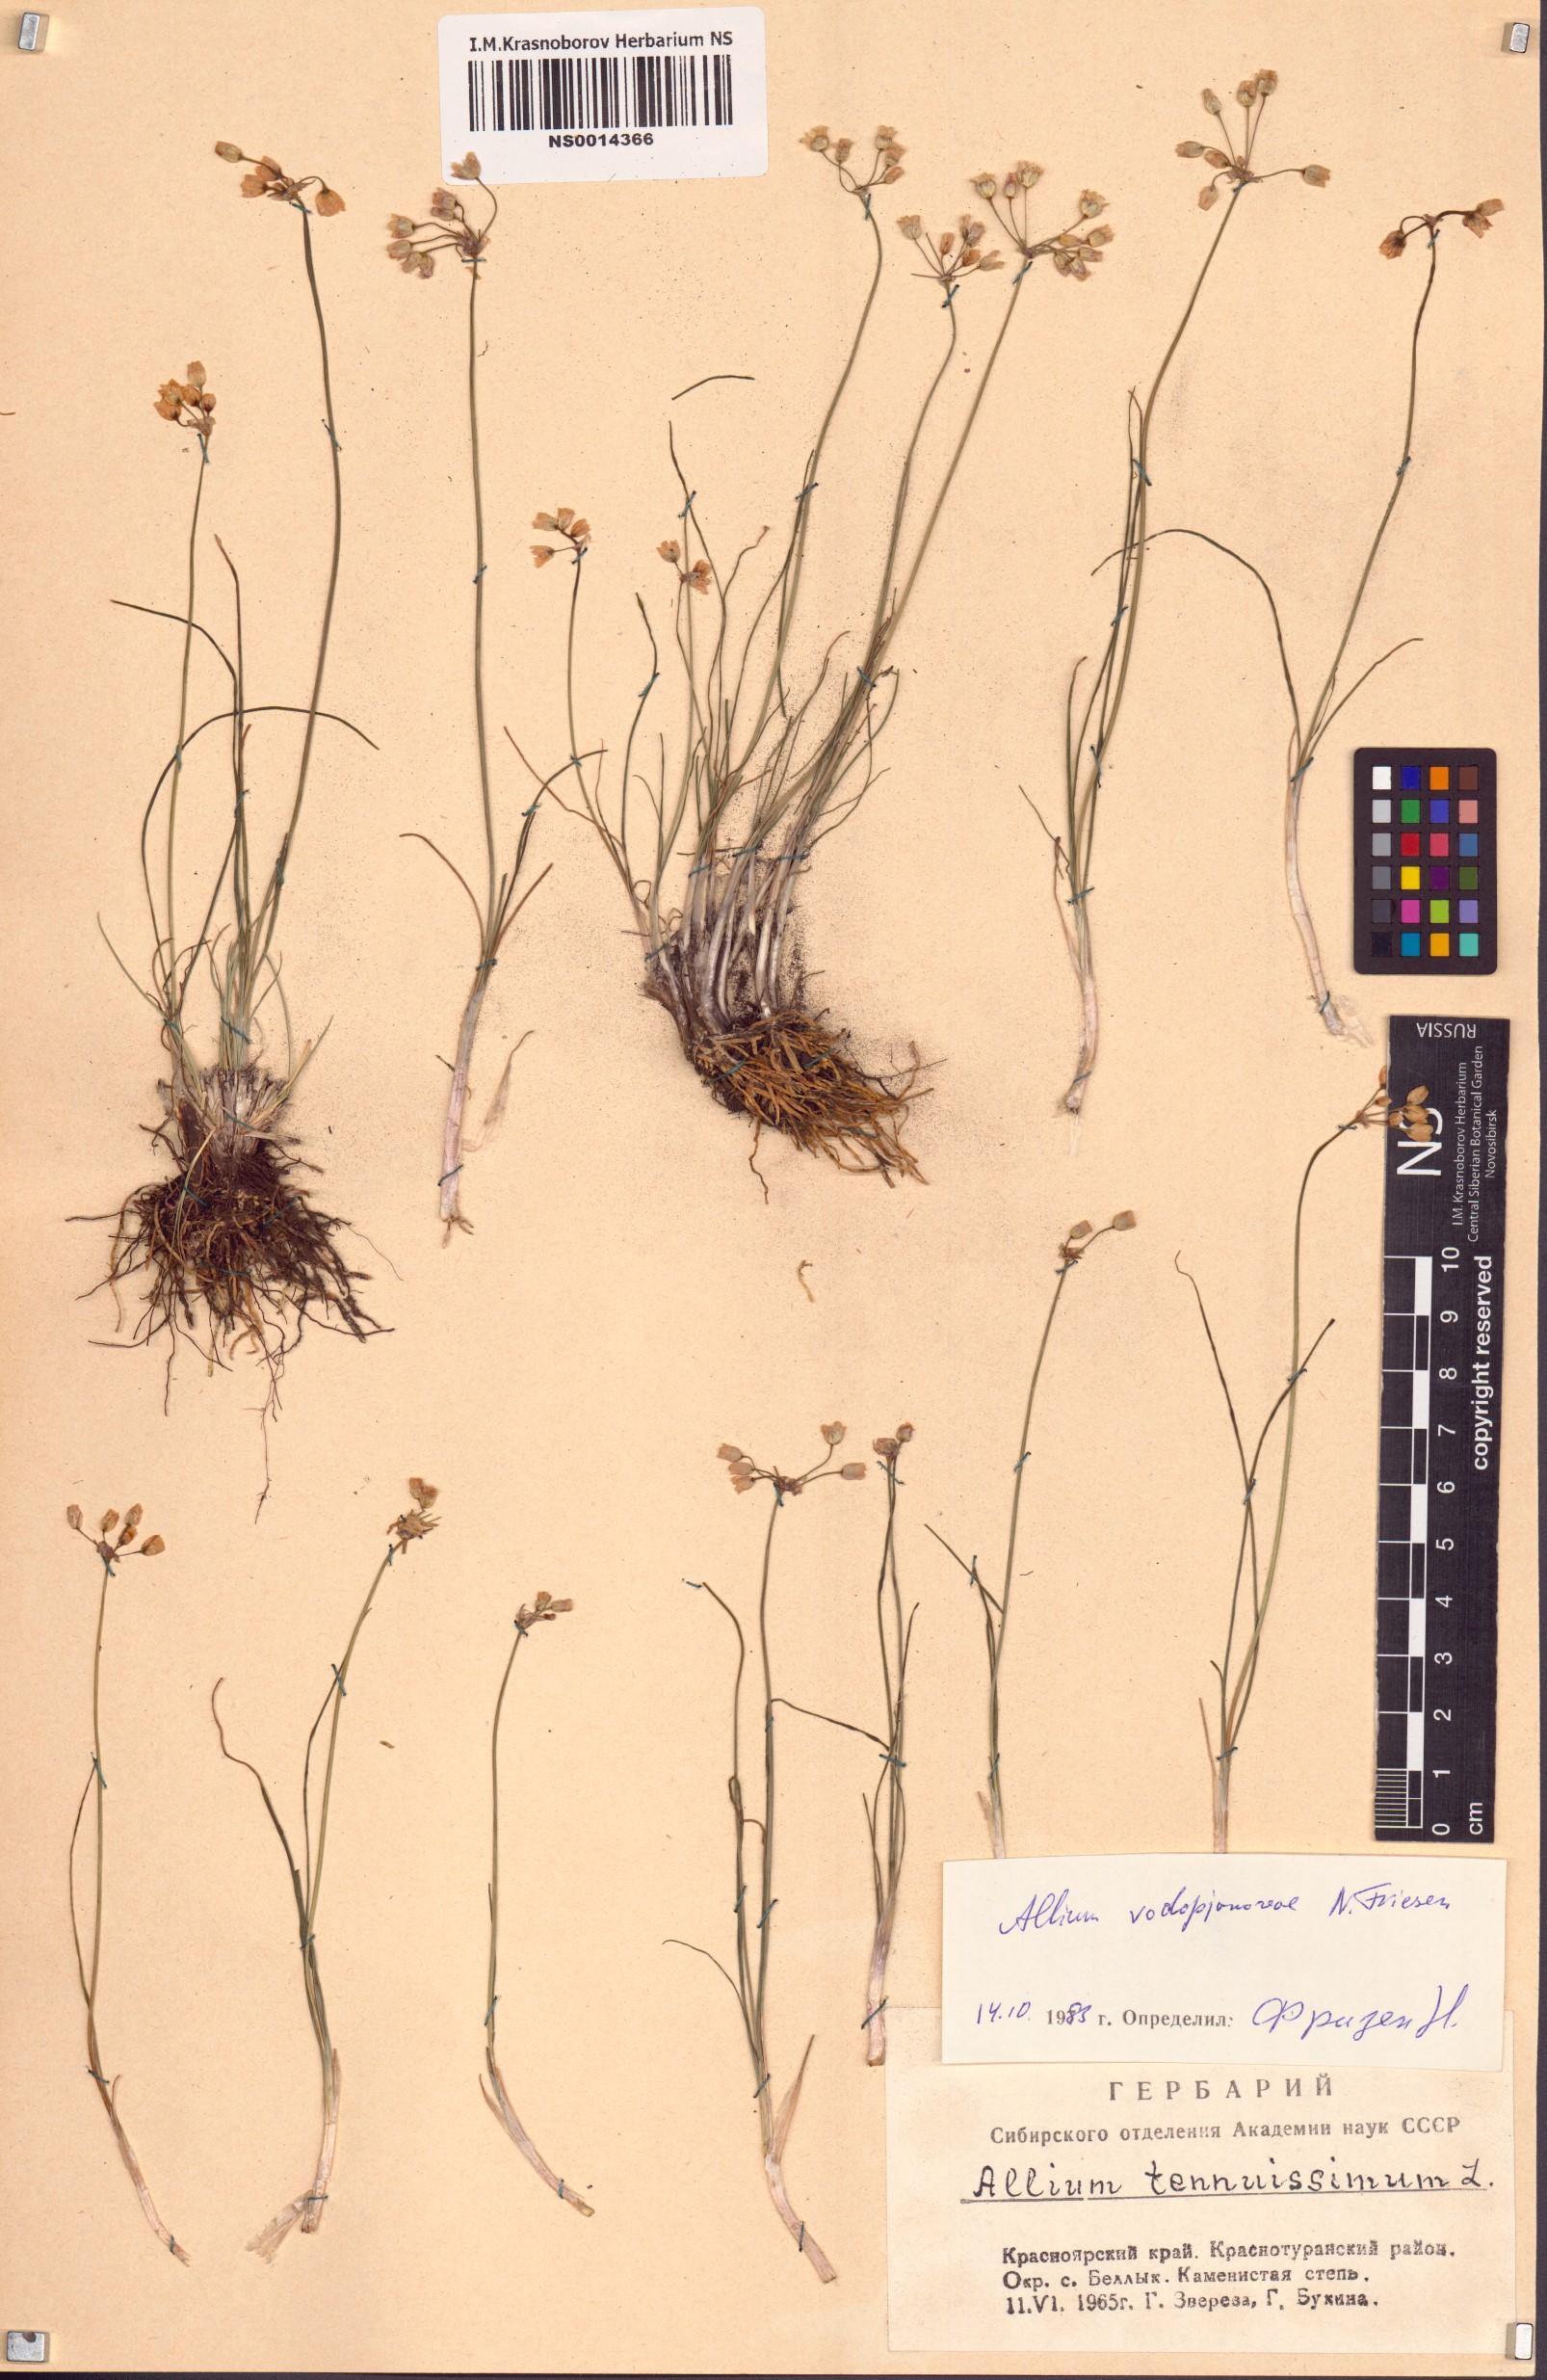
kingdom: Plantae
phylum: Tracheophyta
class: Liliopsida
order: Asparagales
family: Amaryllidaceae
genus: Allium
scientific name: Allium vodopjanovae
